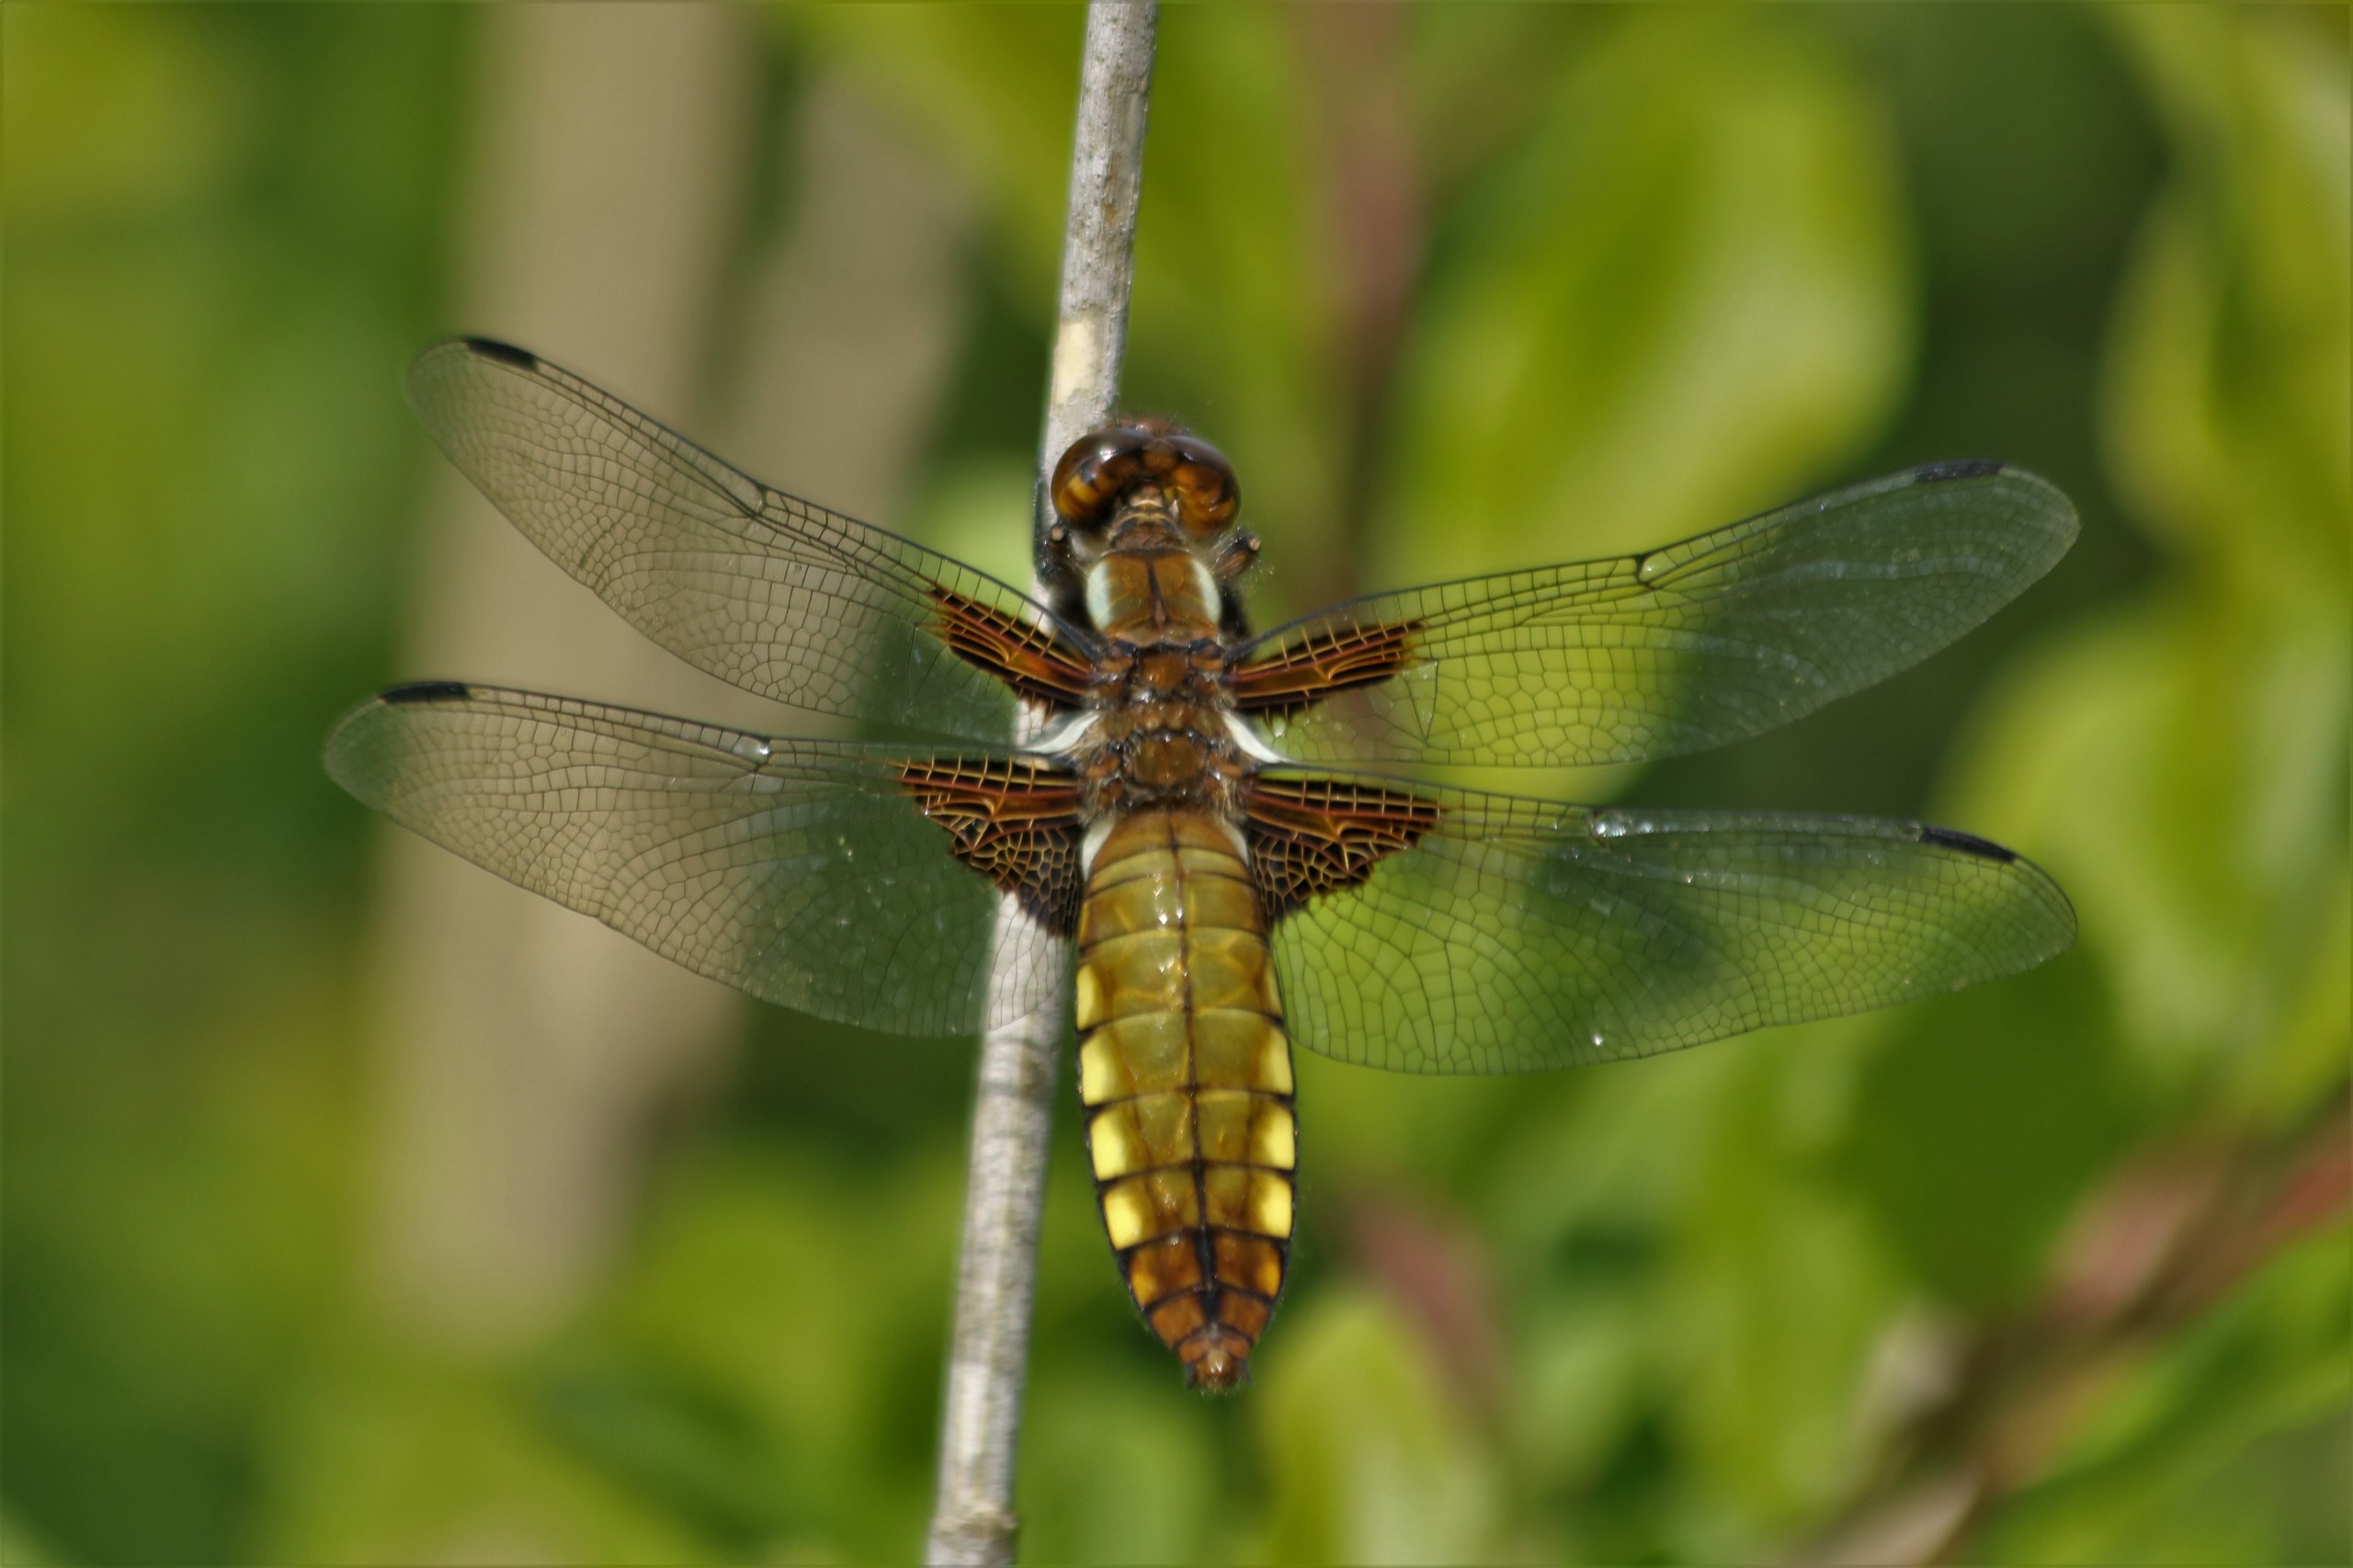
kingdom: Animalia
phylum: Arthropoda
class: Insecta
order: Odonata
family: Libellulidae
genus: Libellula
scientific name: Libellula depressa
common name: Blå libel
